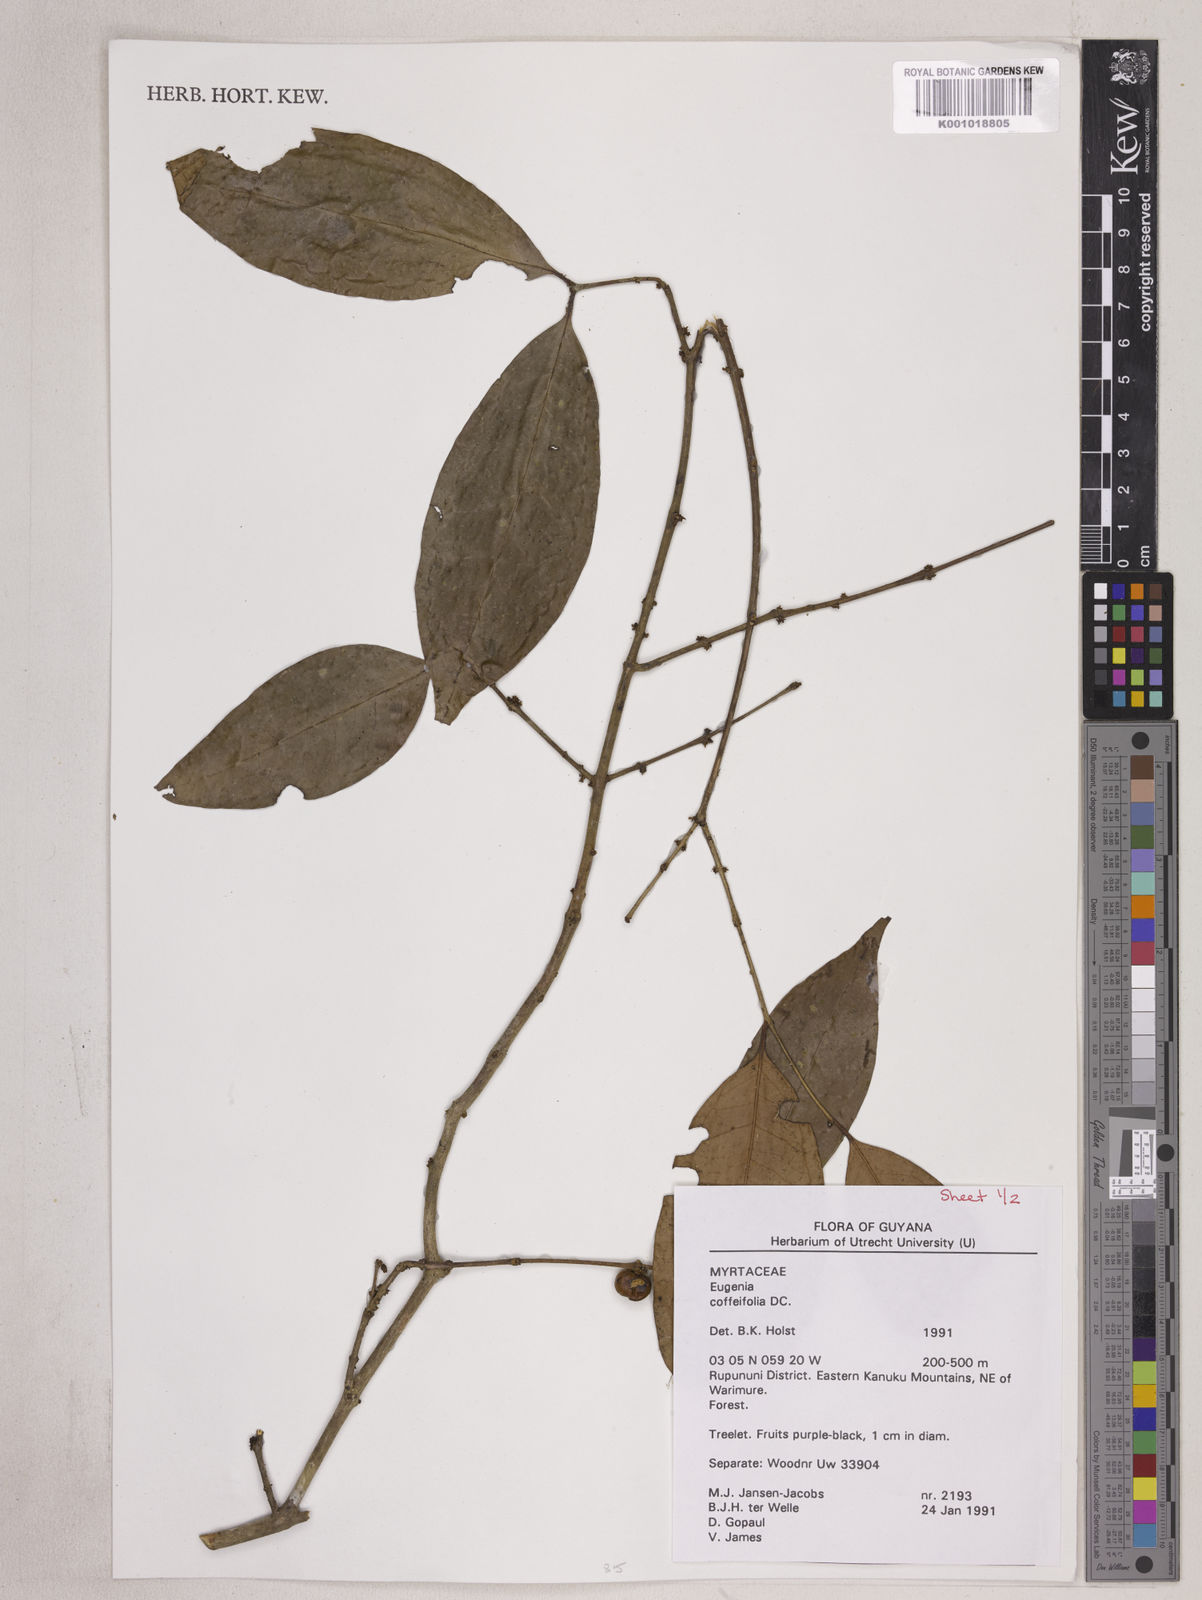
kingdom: Plantae
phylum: Tracheophyta
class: Magnoliopsida
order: Myrtales
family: Myrtaceae
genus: Eugenia
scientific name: Eugenia coffeifolia
